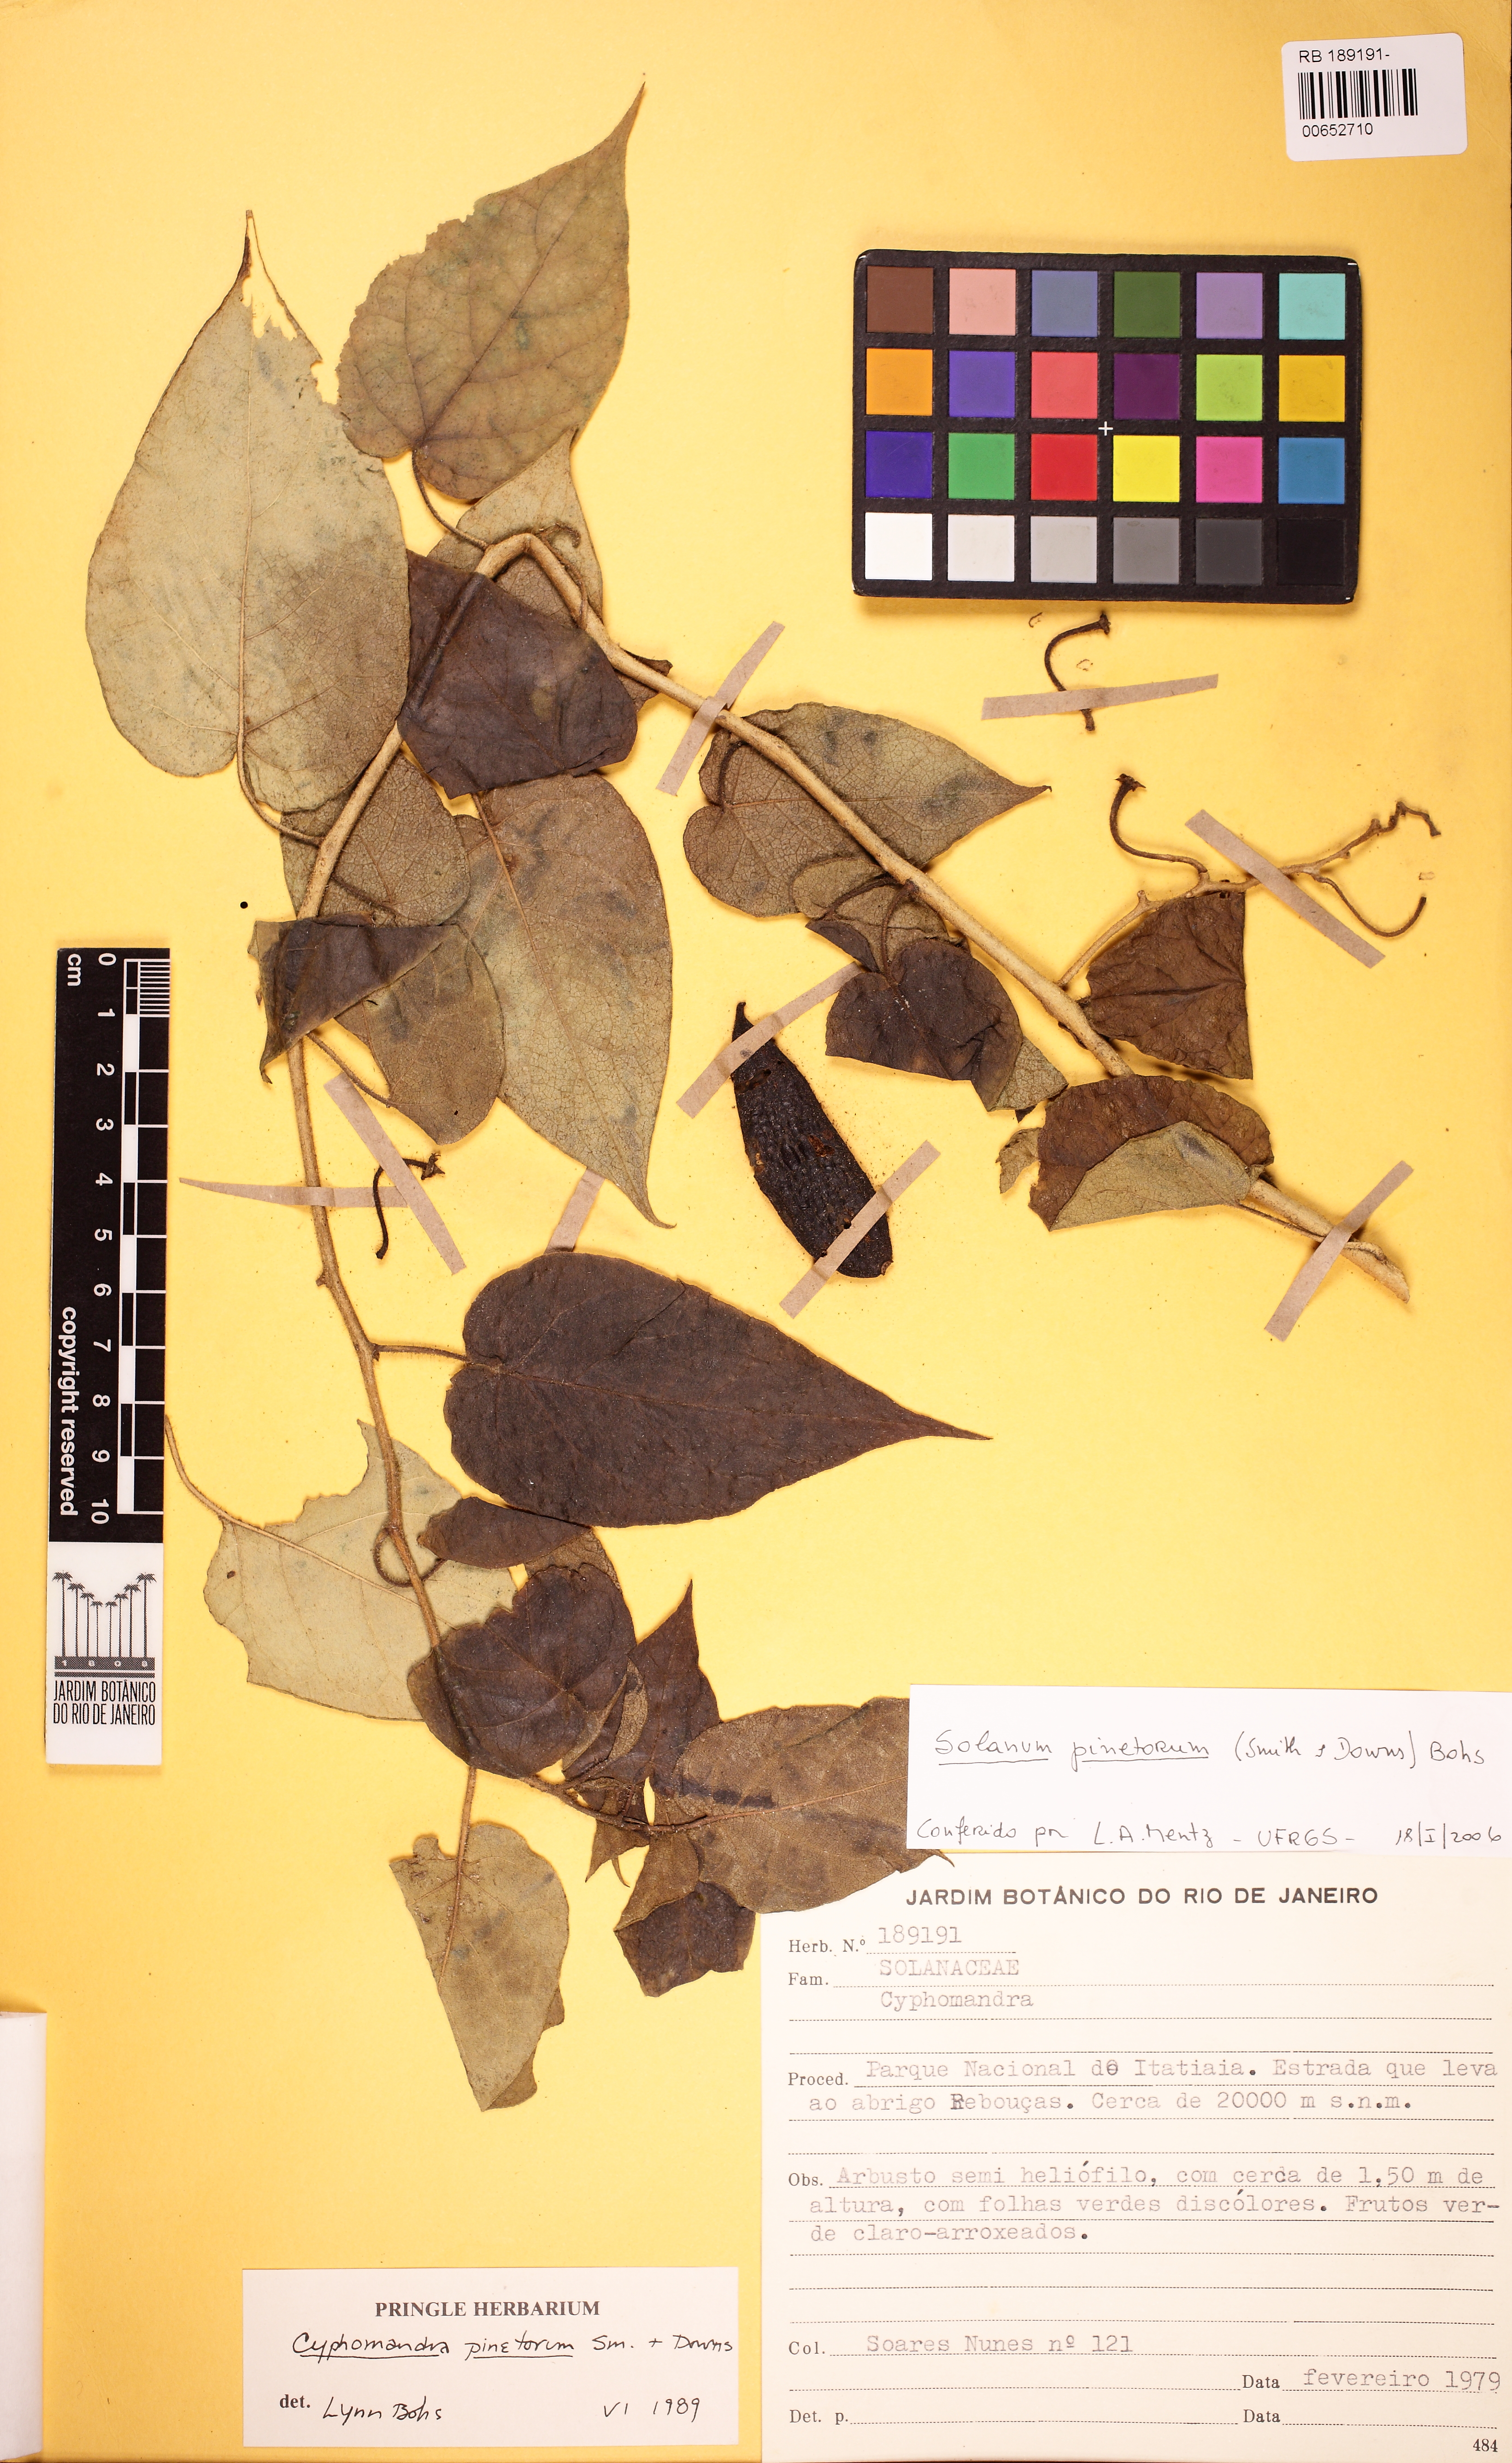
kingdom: Plantae
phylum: Tracheophyta
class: Magnoliopsida
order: Solanales
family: Solanaceae
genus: Solanum
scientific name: Solanum pinetorum
